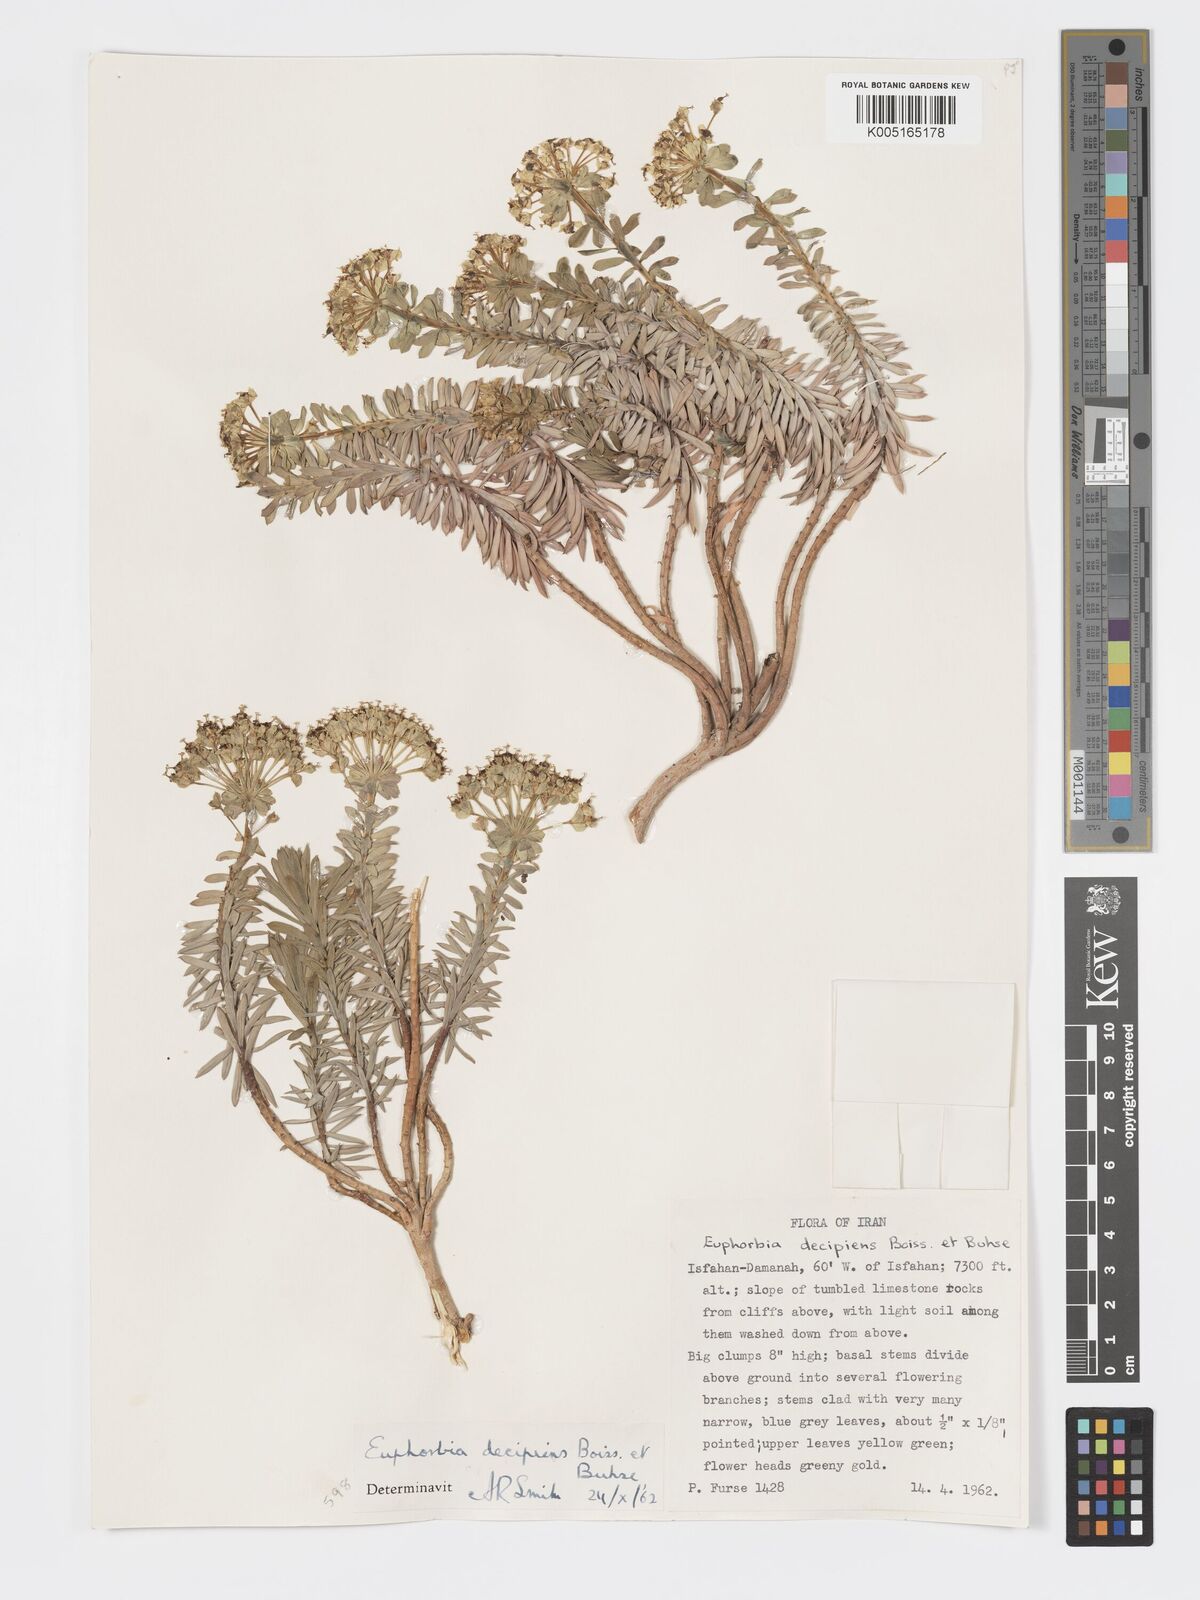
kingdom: Plantae
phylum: Tracheophyta
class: Magnoliopsida
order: Malpighiales
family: Euphorbiaceae
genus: Euphorbia
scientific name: Euphorbia polycaulis
